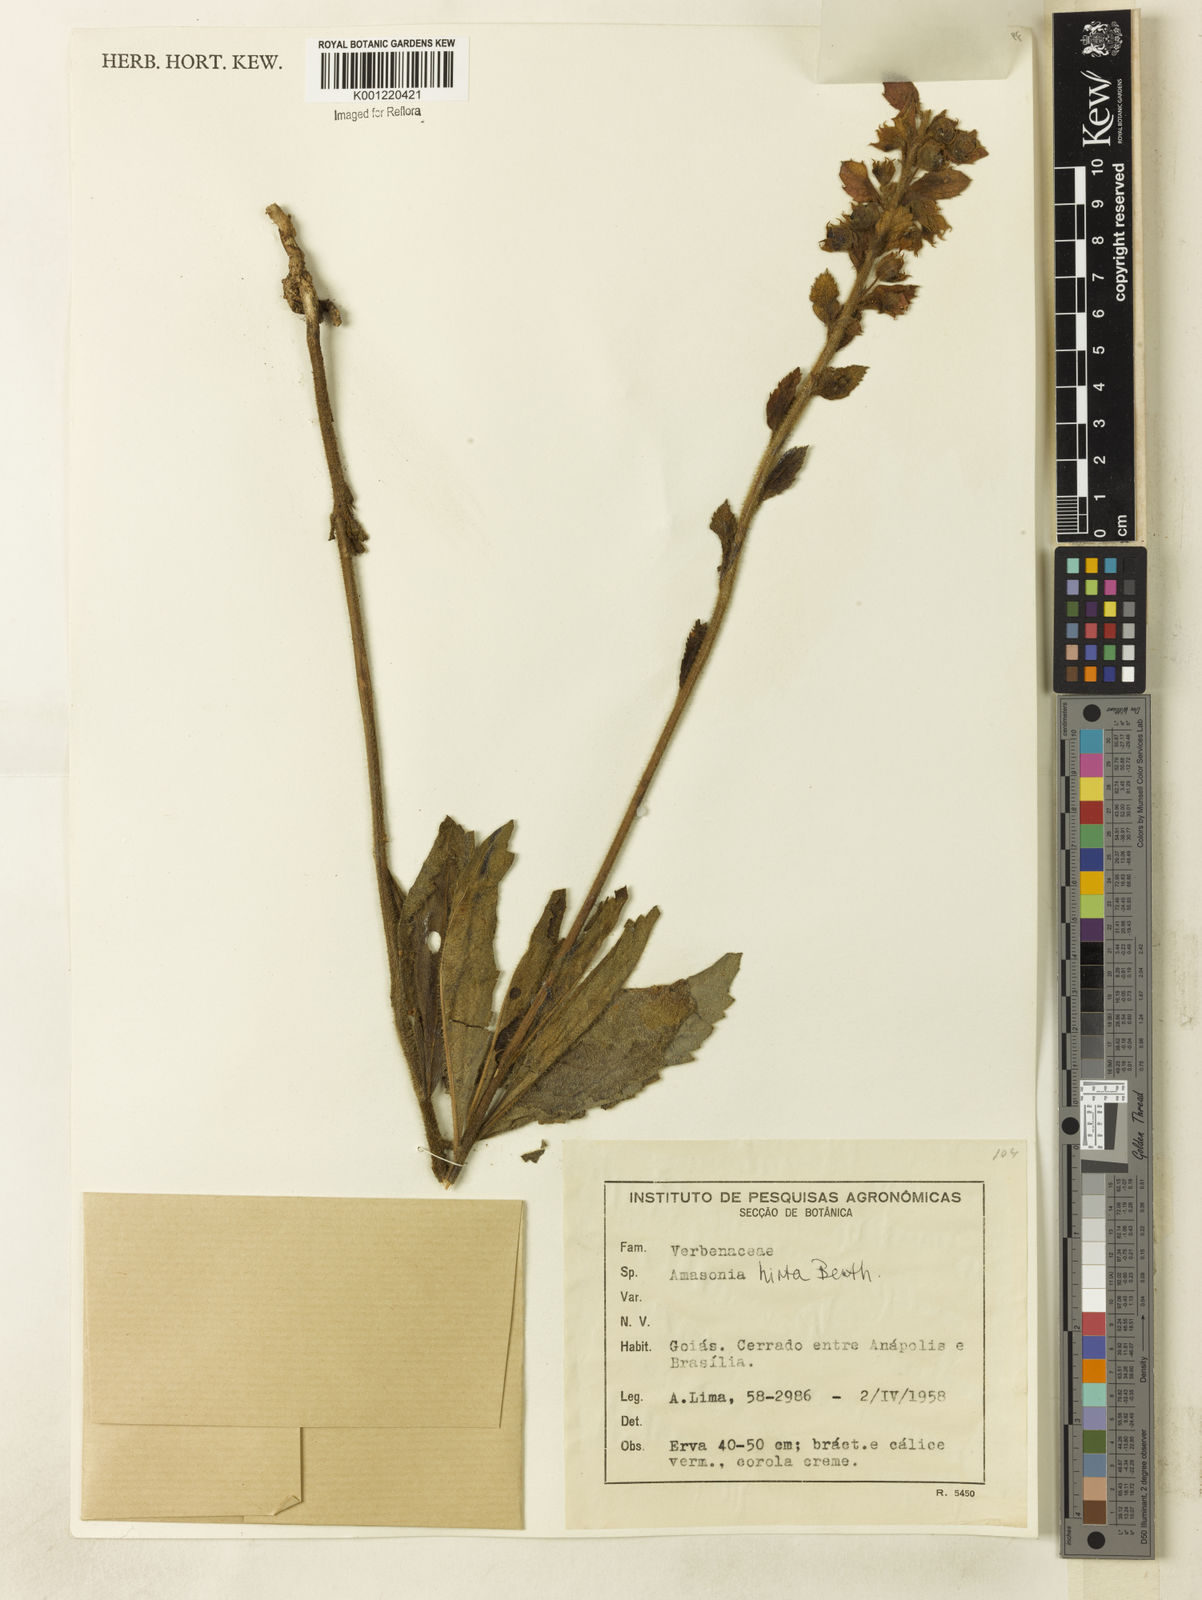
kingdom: Plantae
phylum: Tracheophyta
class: Magnoliopsida
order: Lamiales
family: Lamiaceae
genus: Amasonia
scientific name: Amasonia hirta
